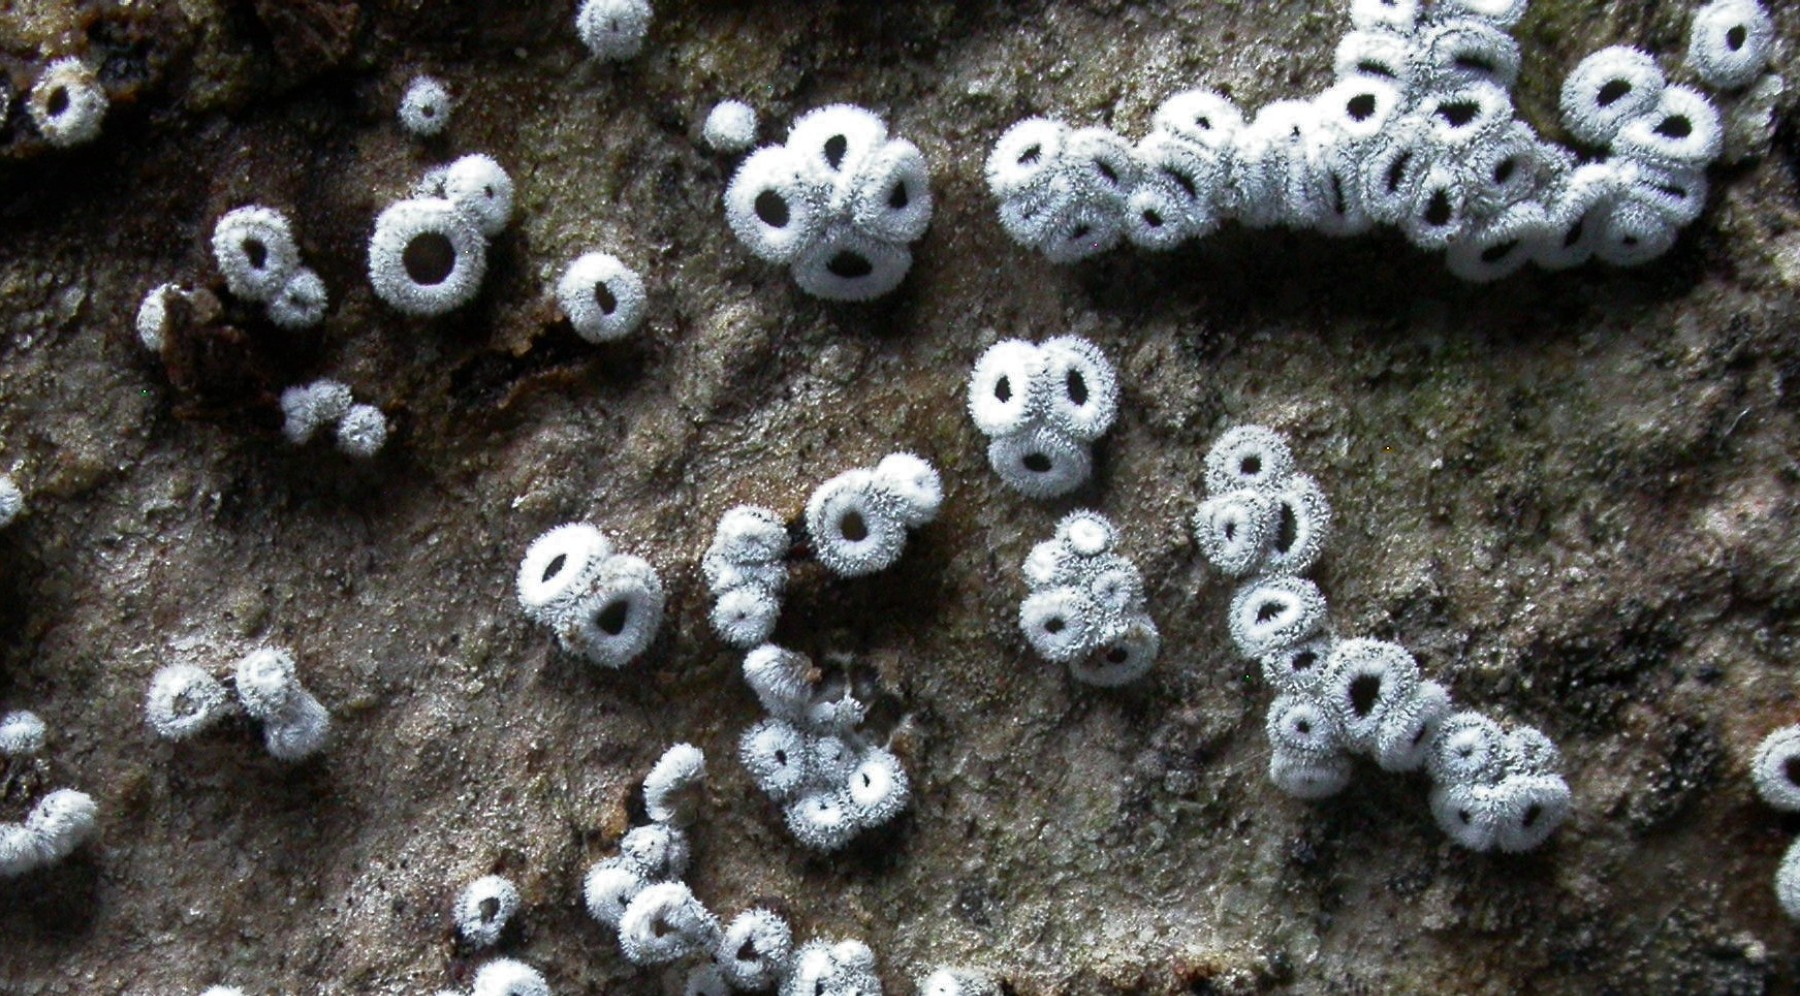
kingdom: Fungi
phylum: Basidiomycota
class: Agaricomycetes
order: Agaricales
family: Niaceae
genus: Lachnella
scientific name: Lachnella alboviolascens
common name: grå frynserede
